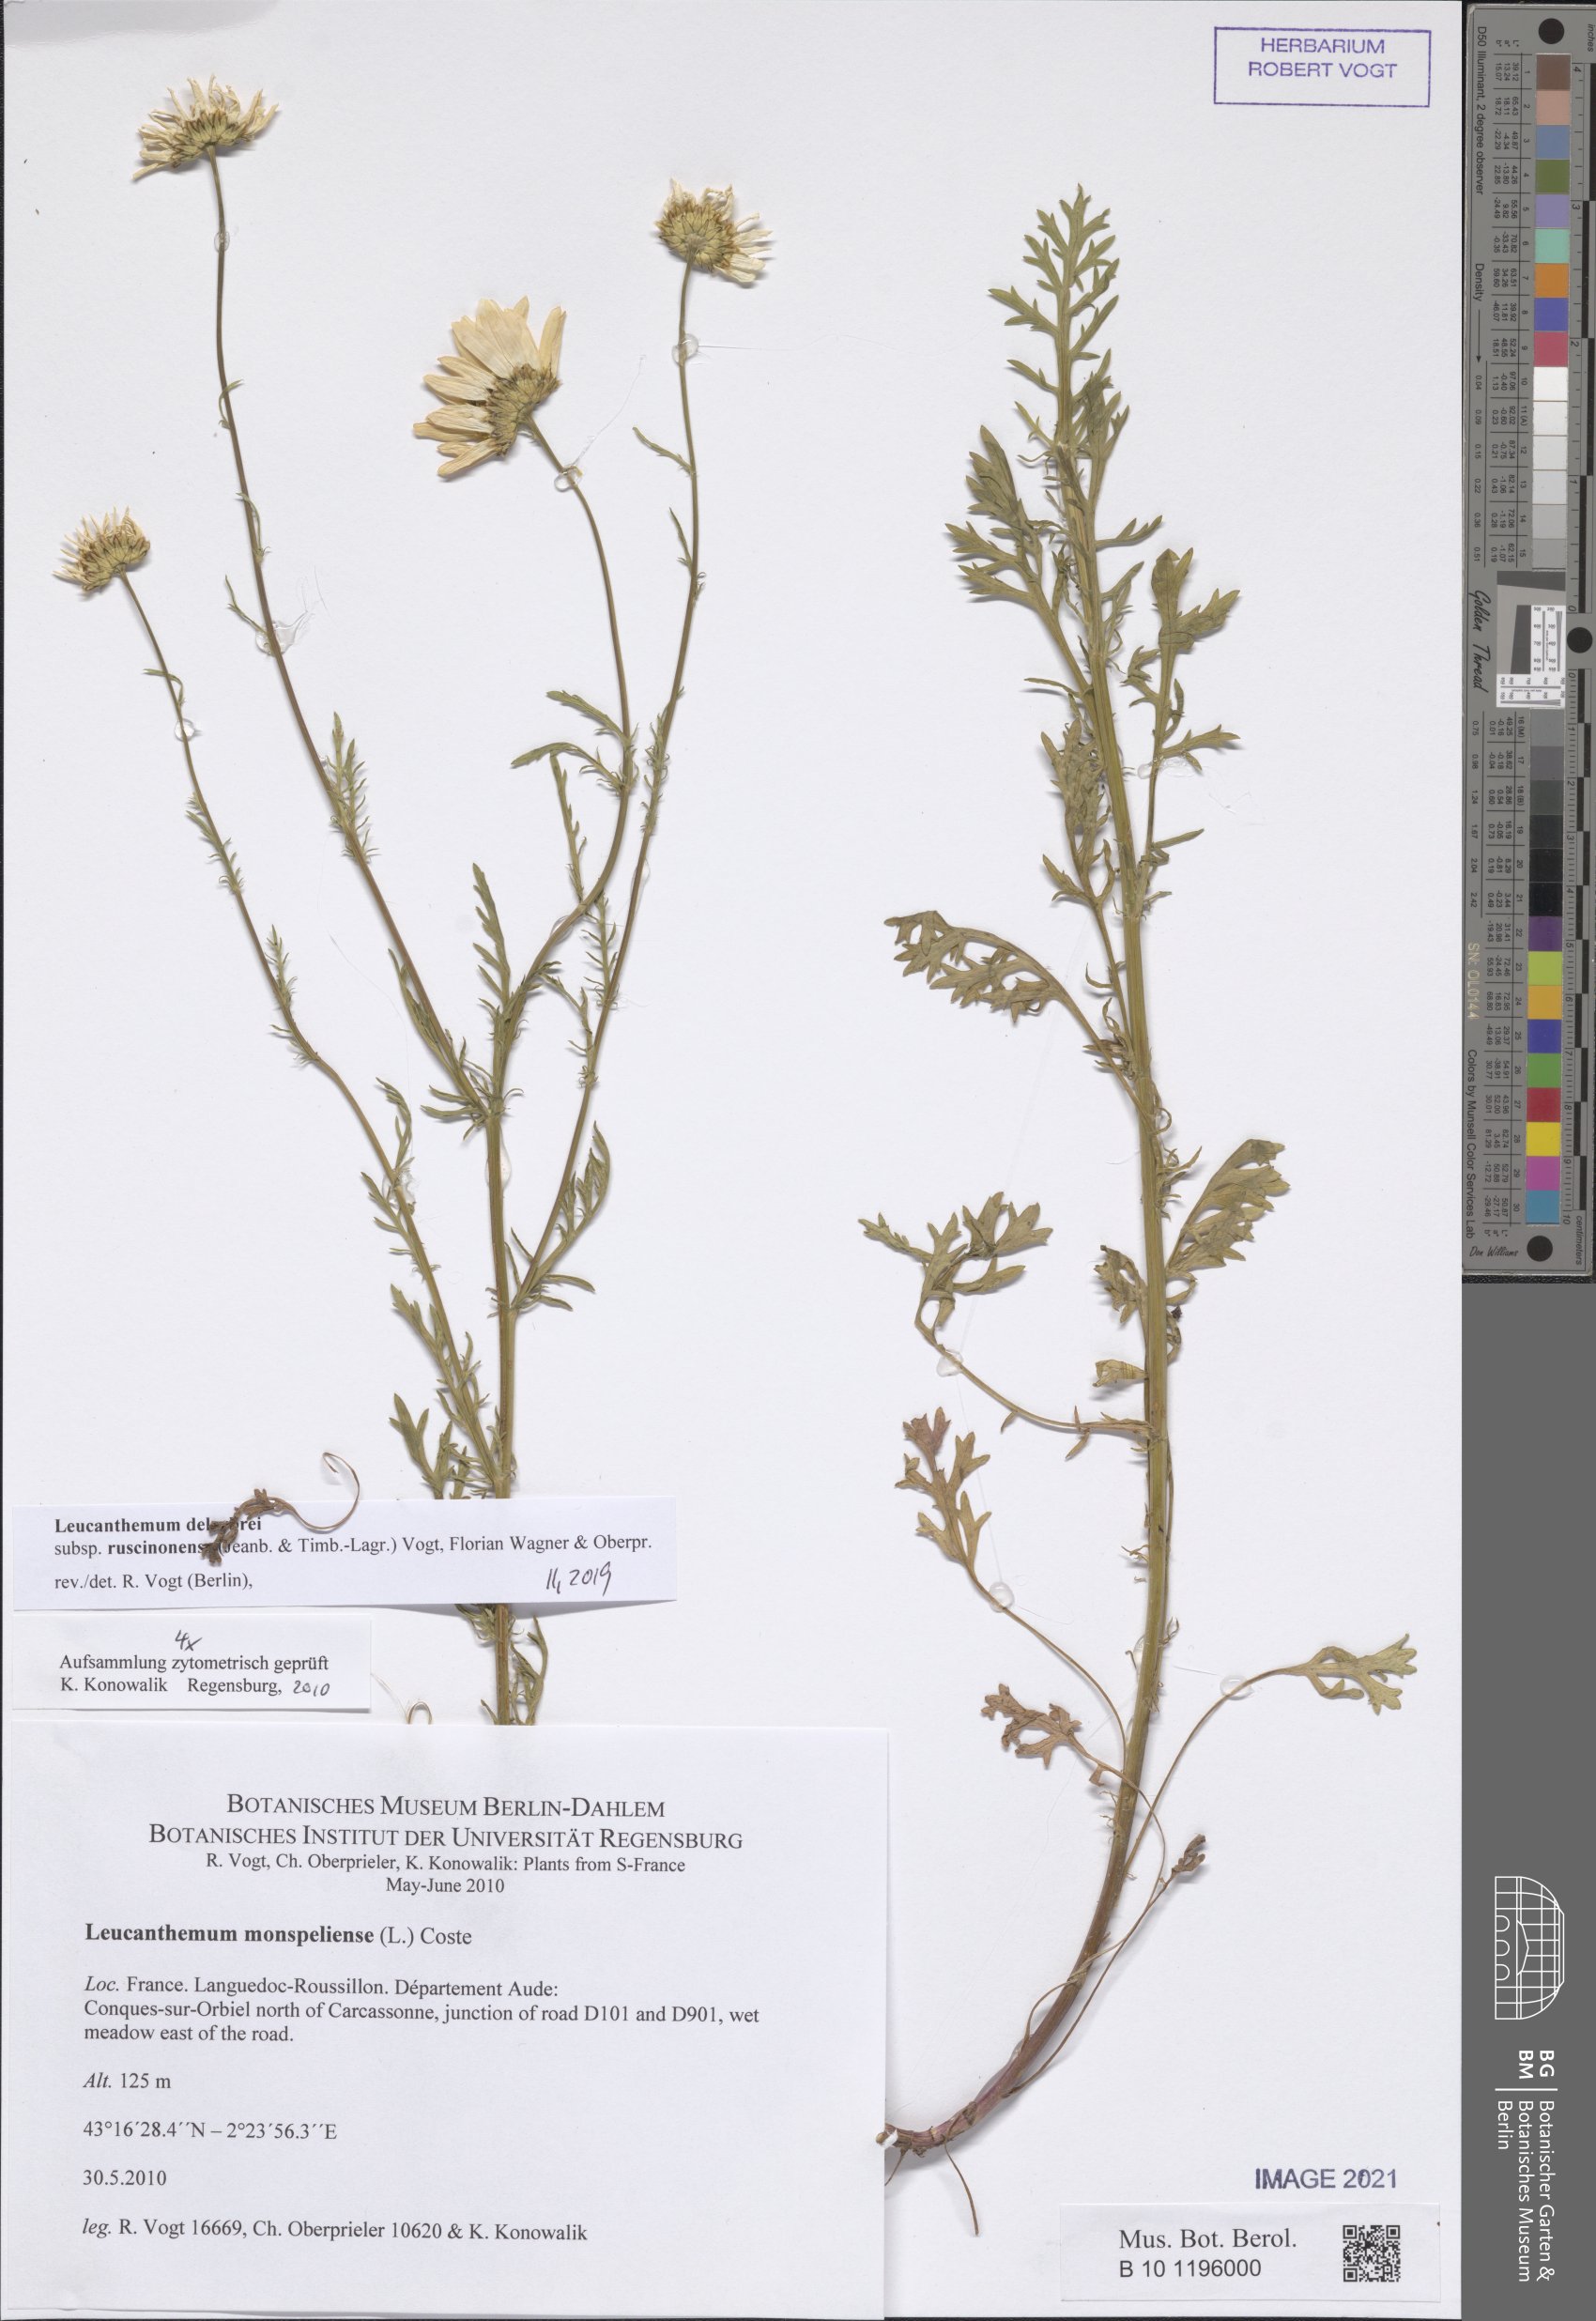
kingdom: Plantae
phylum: Tracheophyta
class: Magnoliopsida
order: Asterales
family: Asteraceae
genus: Leucanthemum
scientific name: Leucanthemum delarbrei
